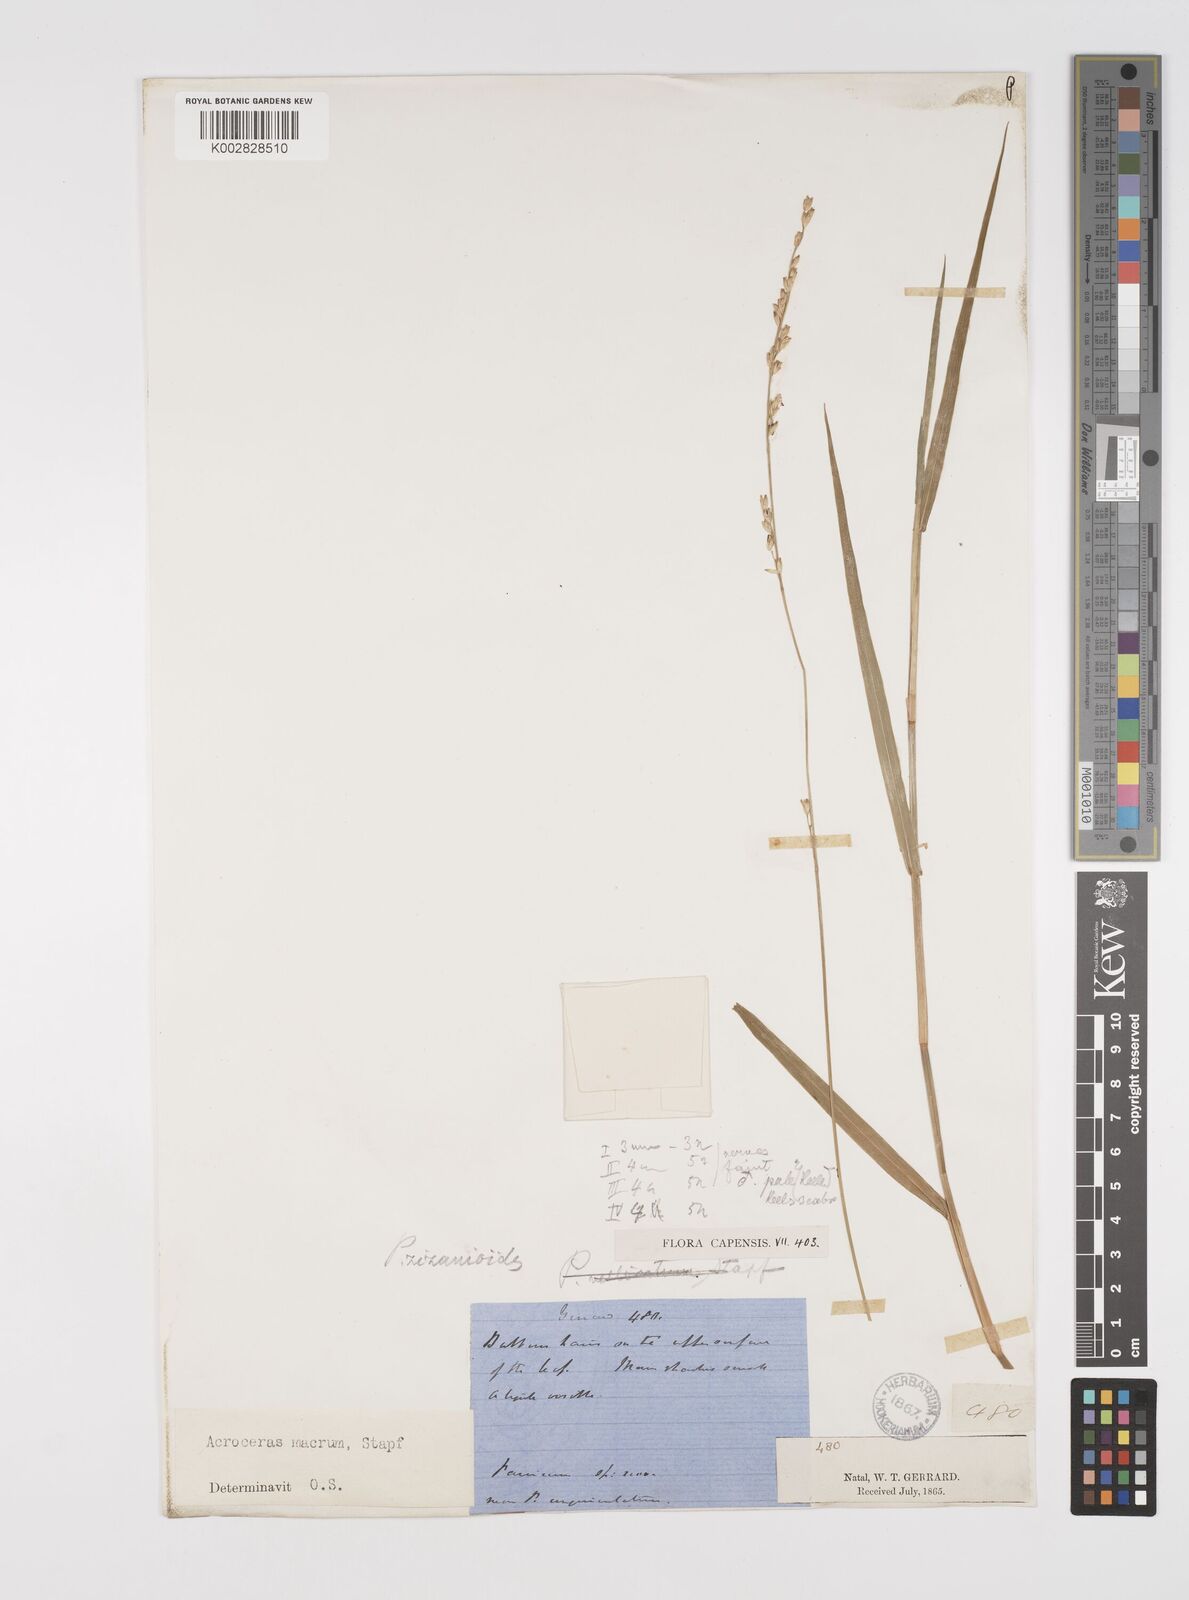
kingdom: Plantae
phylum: Tracheophyta
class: Liliopsida
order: Poales
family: Poaceae
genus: Acroceras
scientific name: Acroceras macrum
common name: Nyl grass
